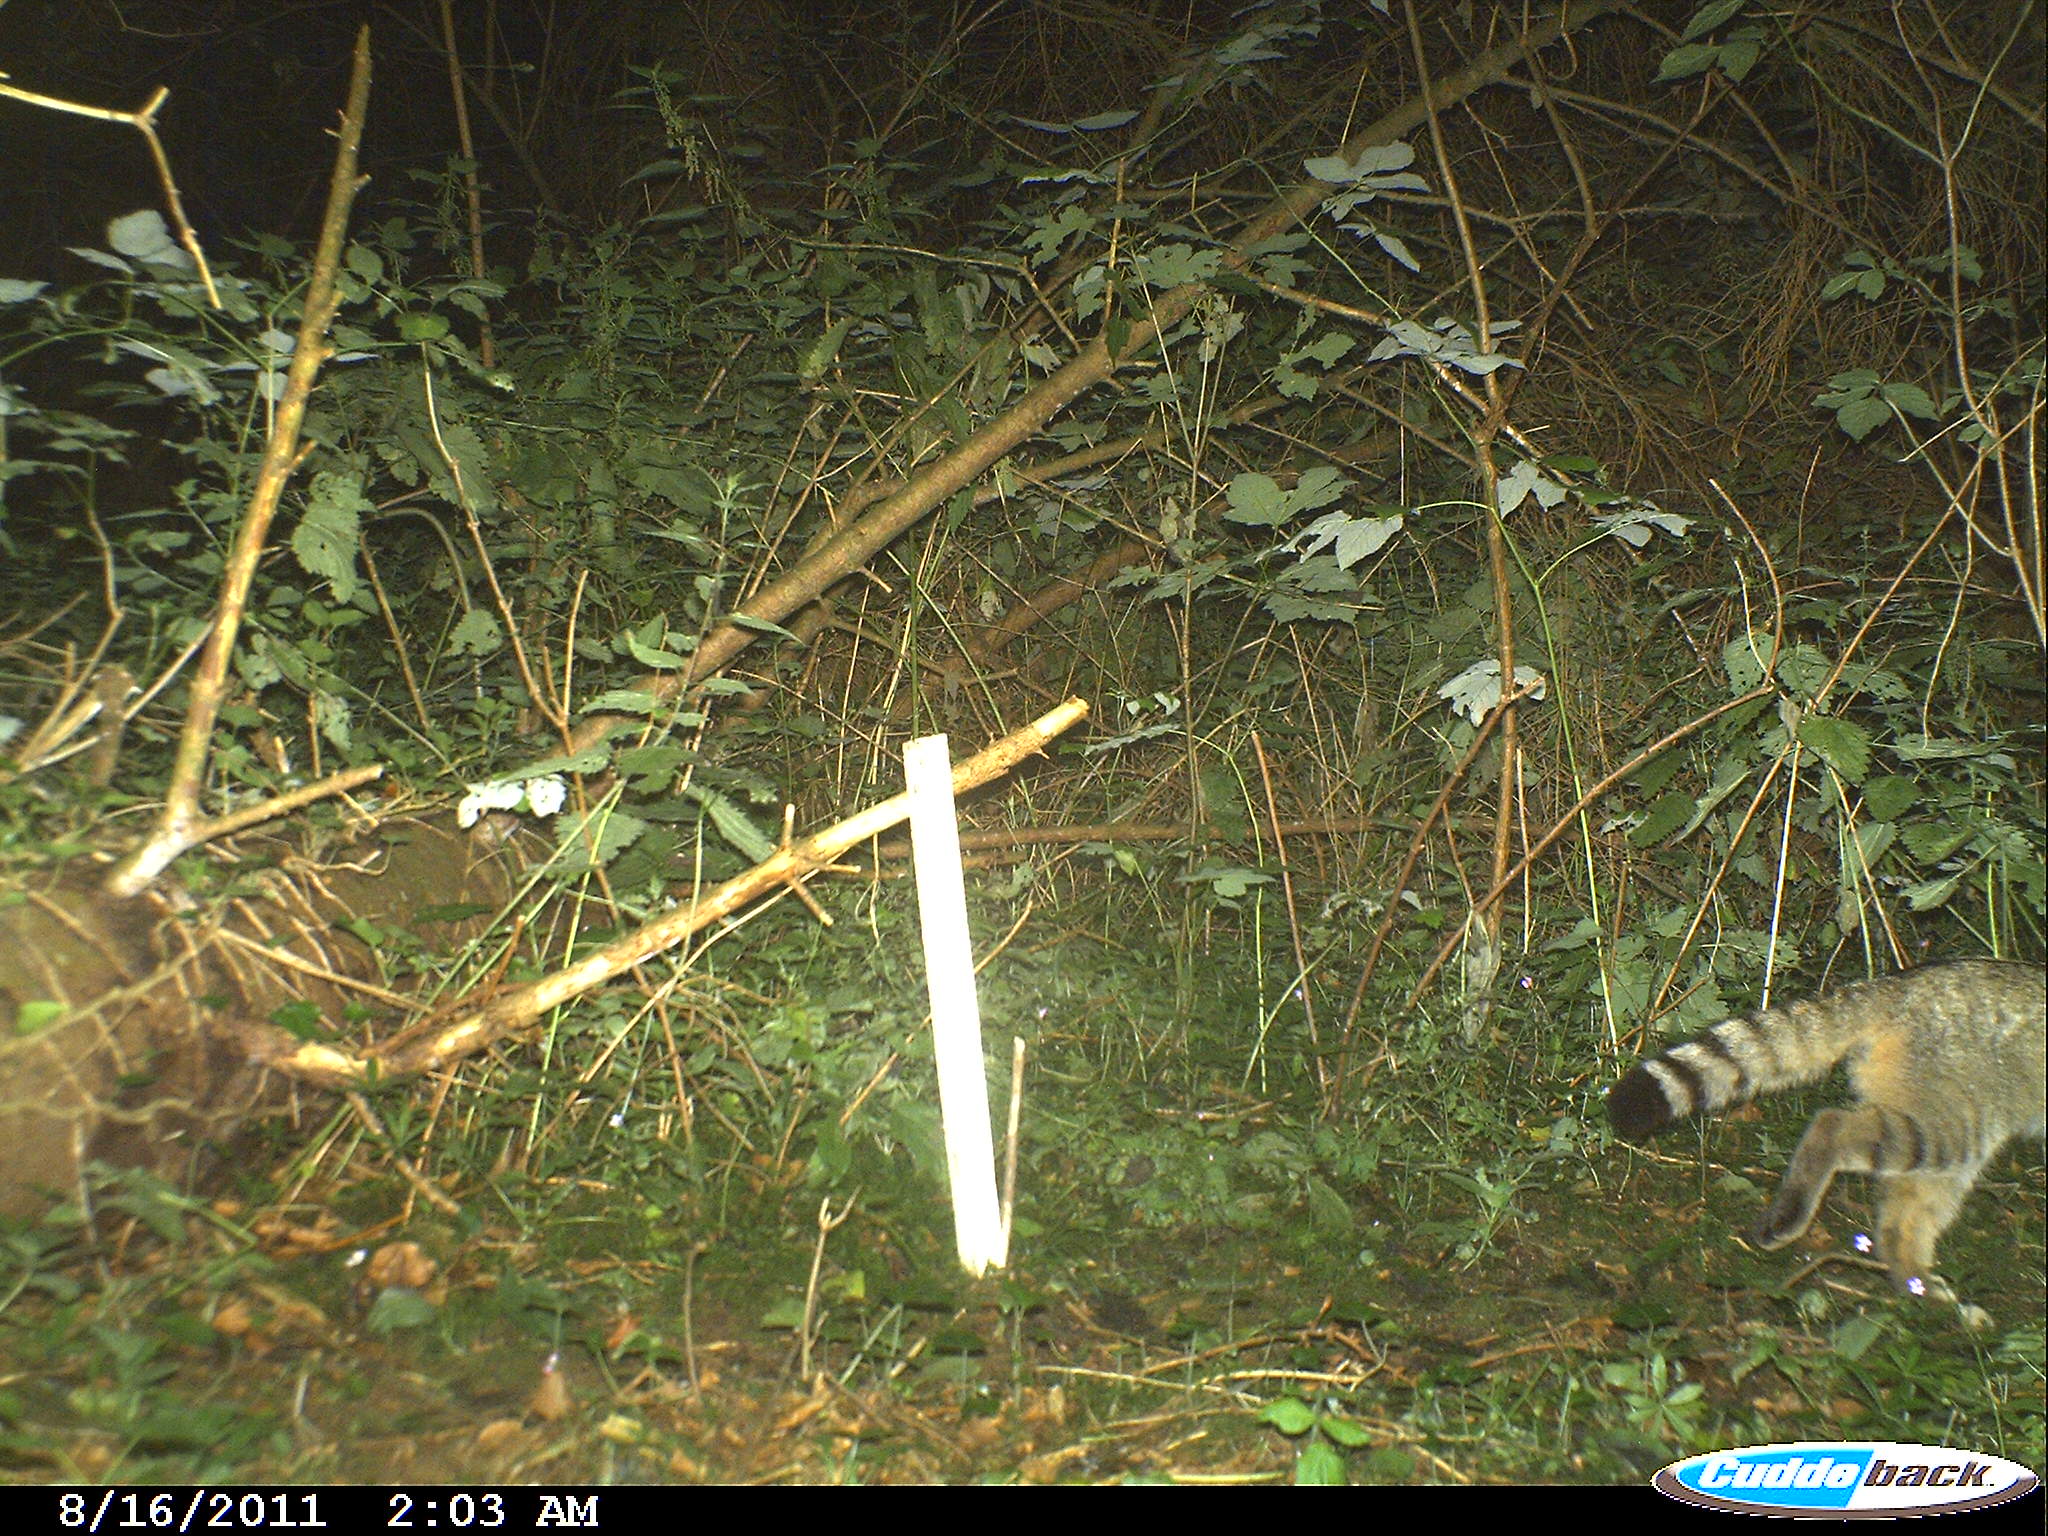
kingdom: Animalia
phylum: Chordata
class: Mammalia
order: Carnivora
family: Felidae
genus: Felis
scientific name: Felis silvestris
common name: Wildcat
